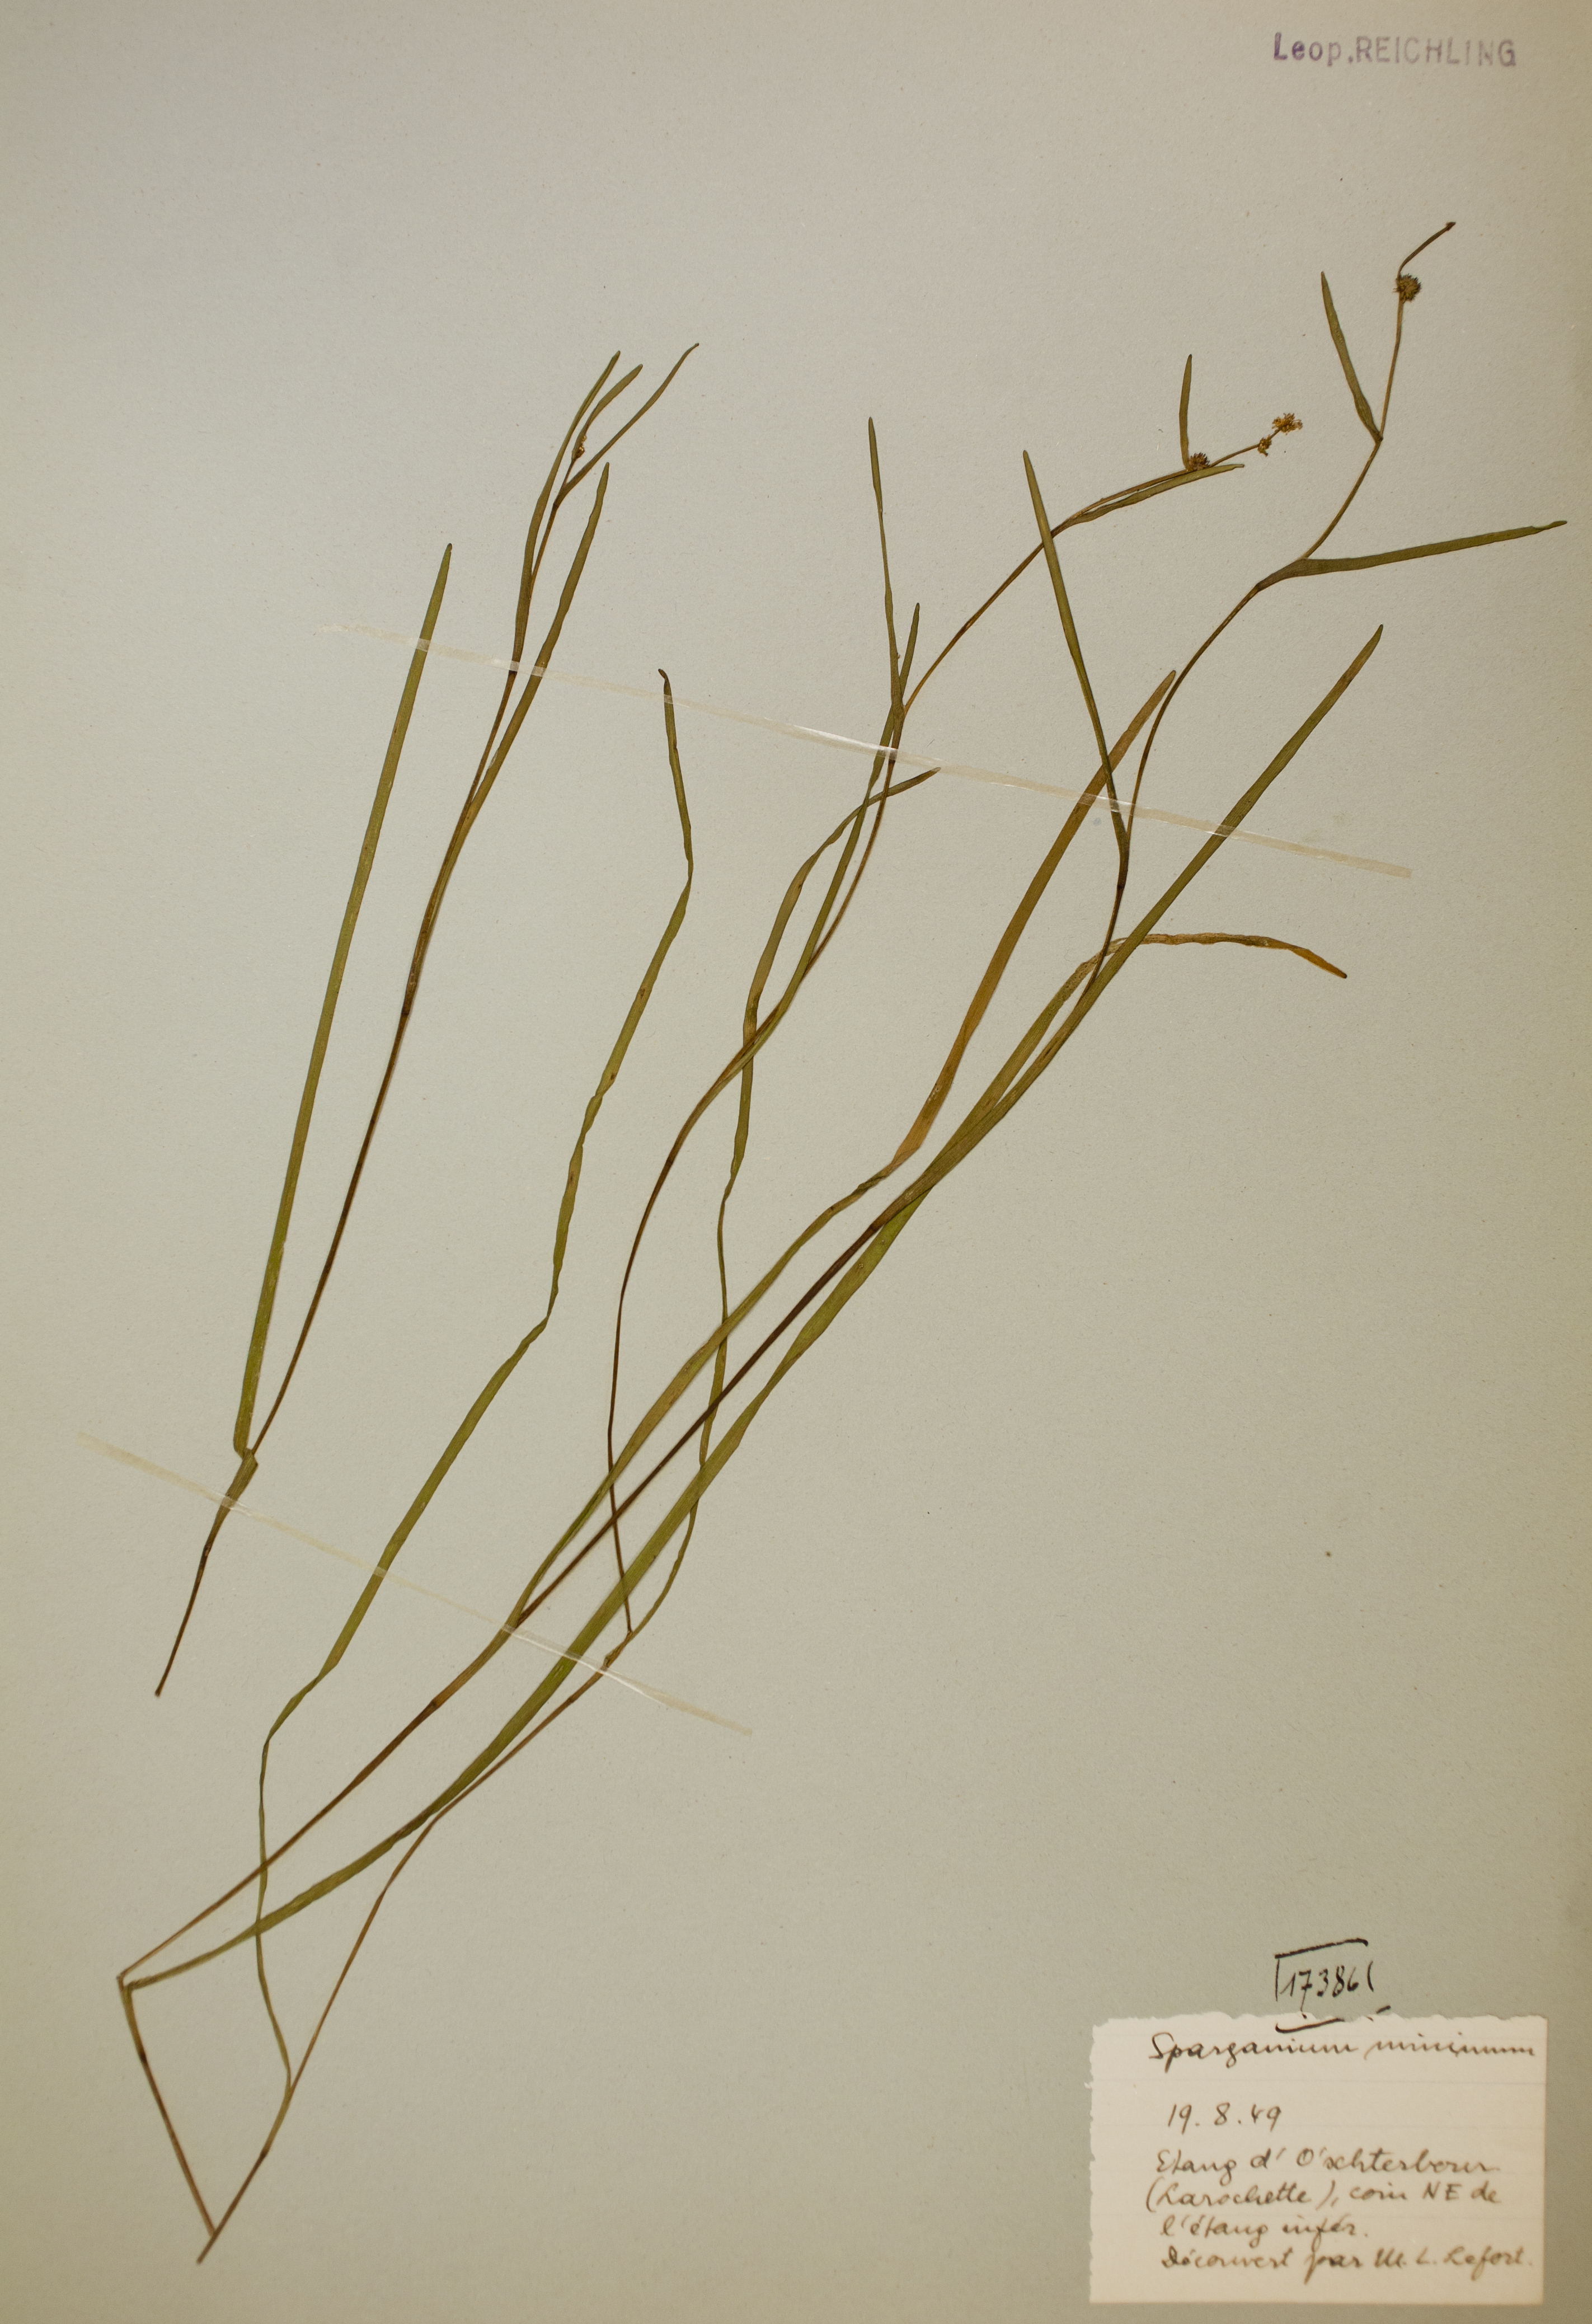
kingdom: Plantae
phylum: Tracheophyta
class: Liliopsida
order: Poales
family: Typhaceae
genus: Sparganium
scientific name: Sparganium natans
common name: Least bur-reed
